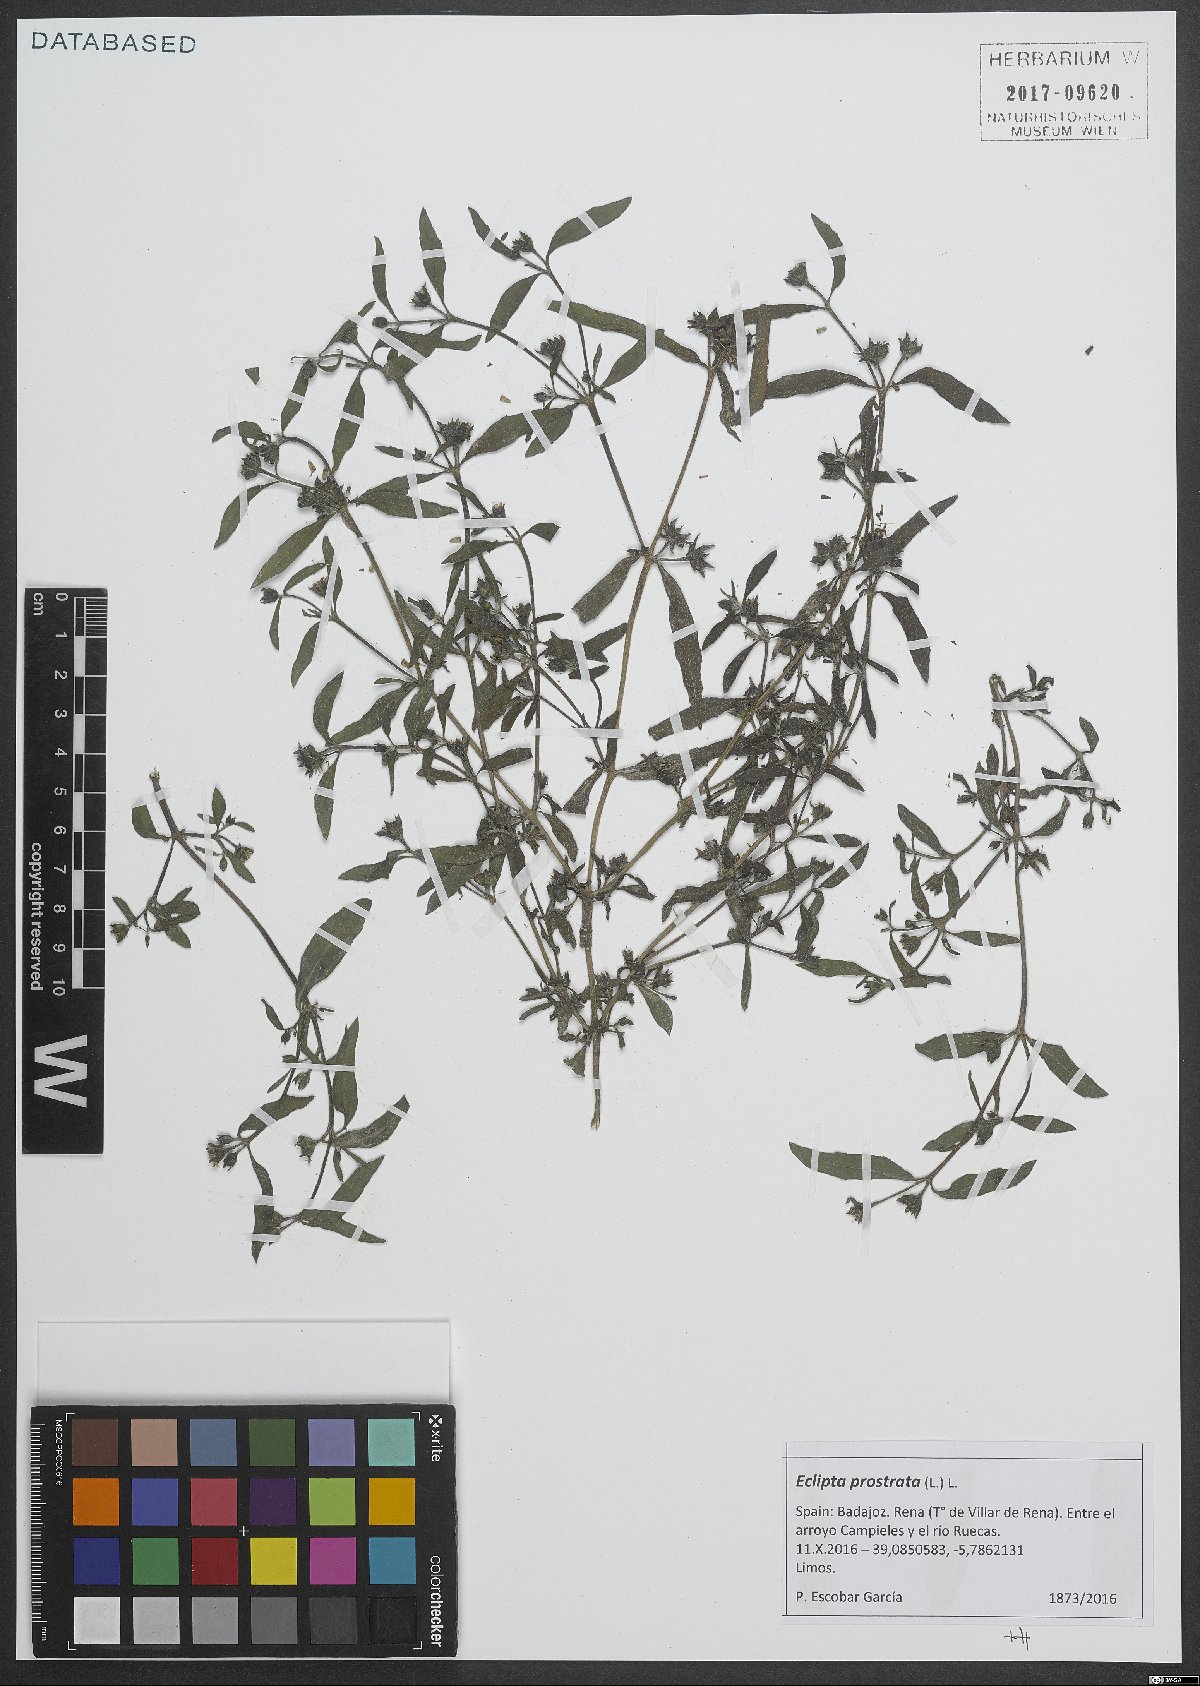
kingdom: Plantae
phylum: Tracheophyta
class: Magnoliopsida
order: Asterales
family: Asteraceae
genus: Eclipta
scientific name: Eclipta prostrata
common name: False daisy
